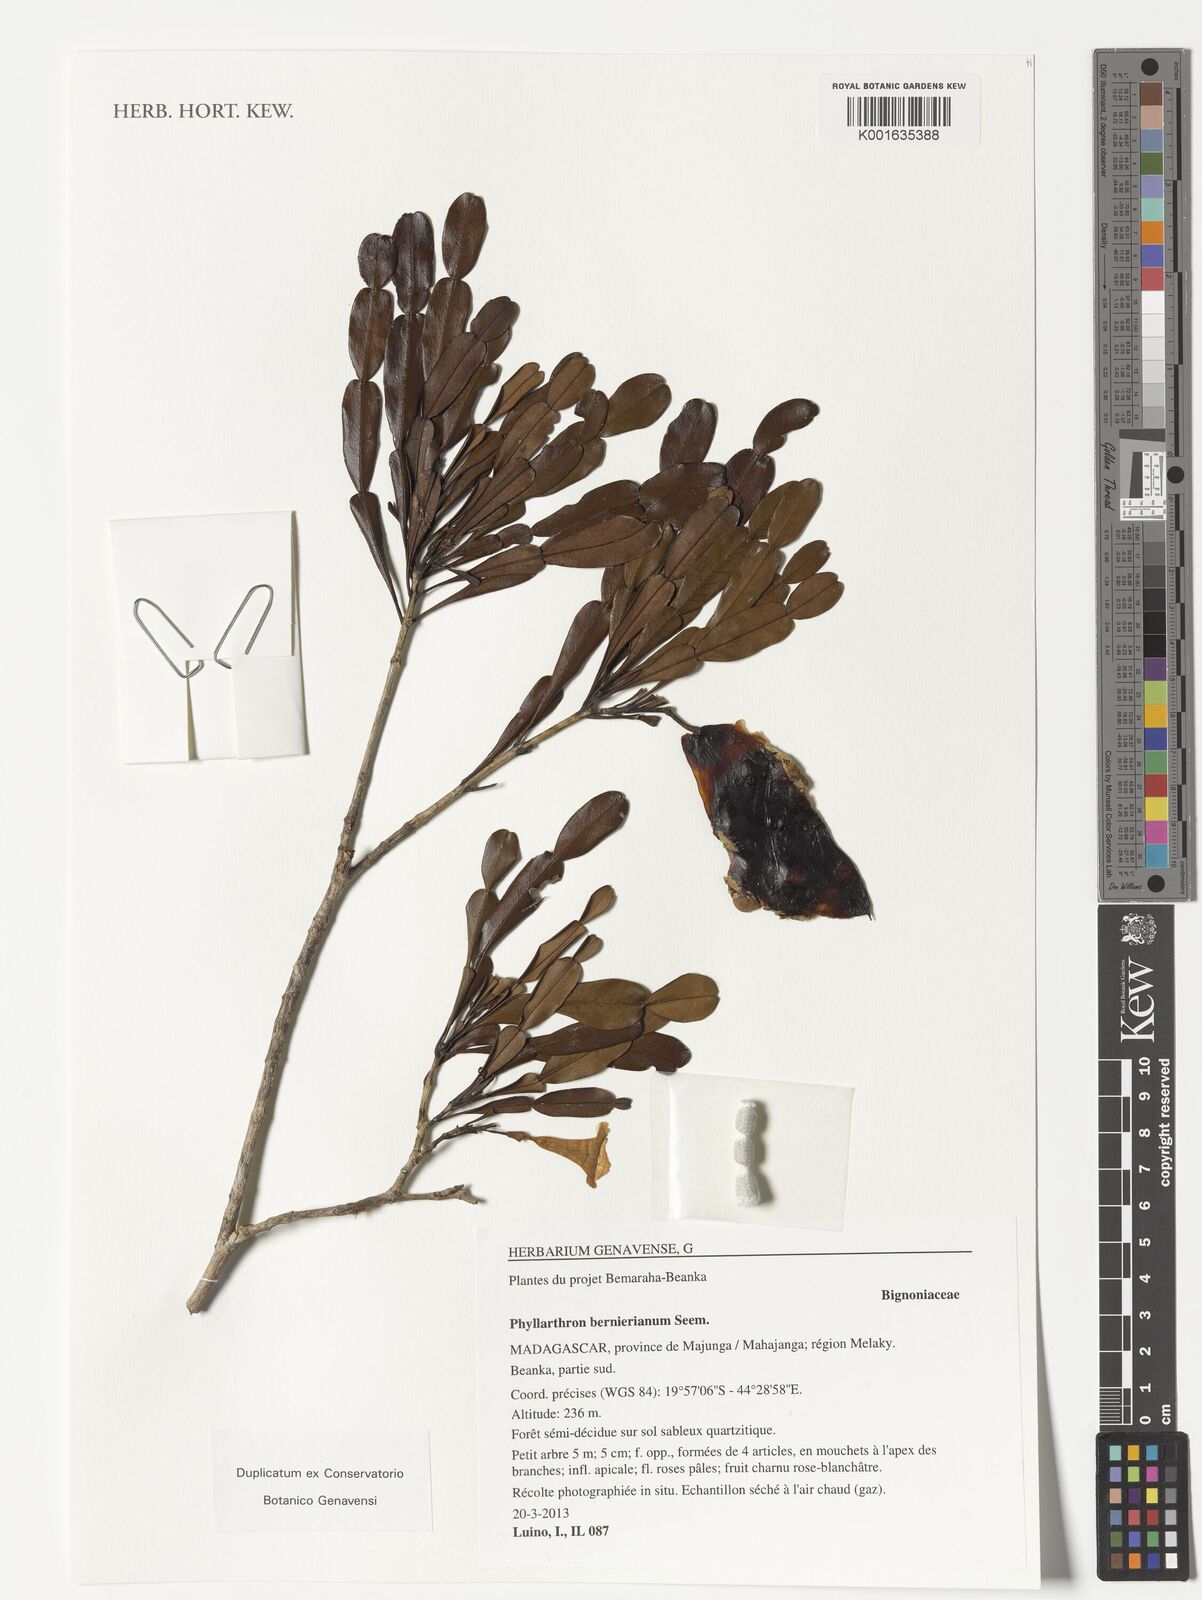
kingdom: Plantae
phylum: Tracheophyta
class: Magnoliopsida
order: Lamiales
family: Bignoniaceae
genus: Phyllarthron
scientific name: Phyllarthron bernierianum
